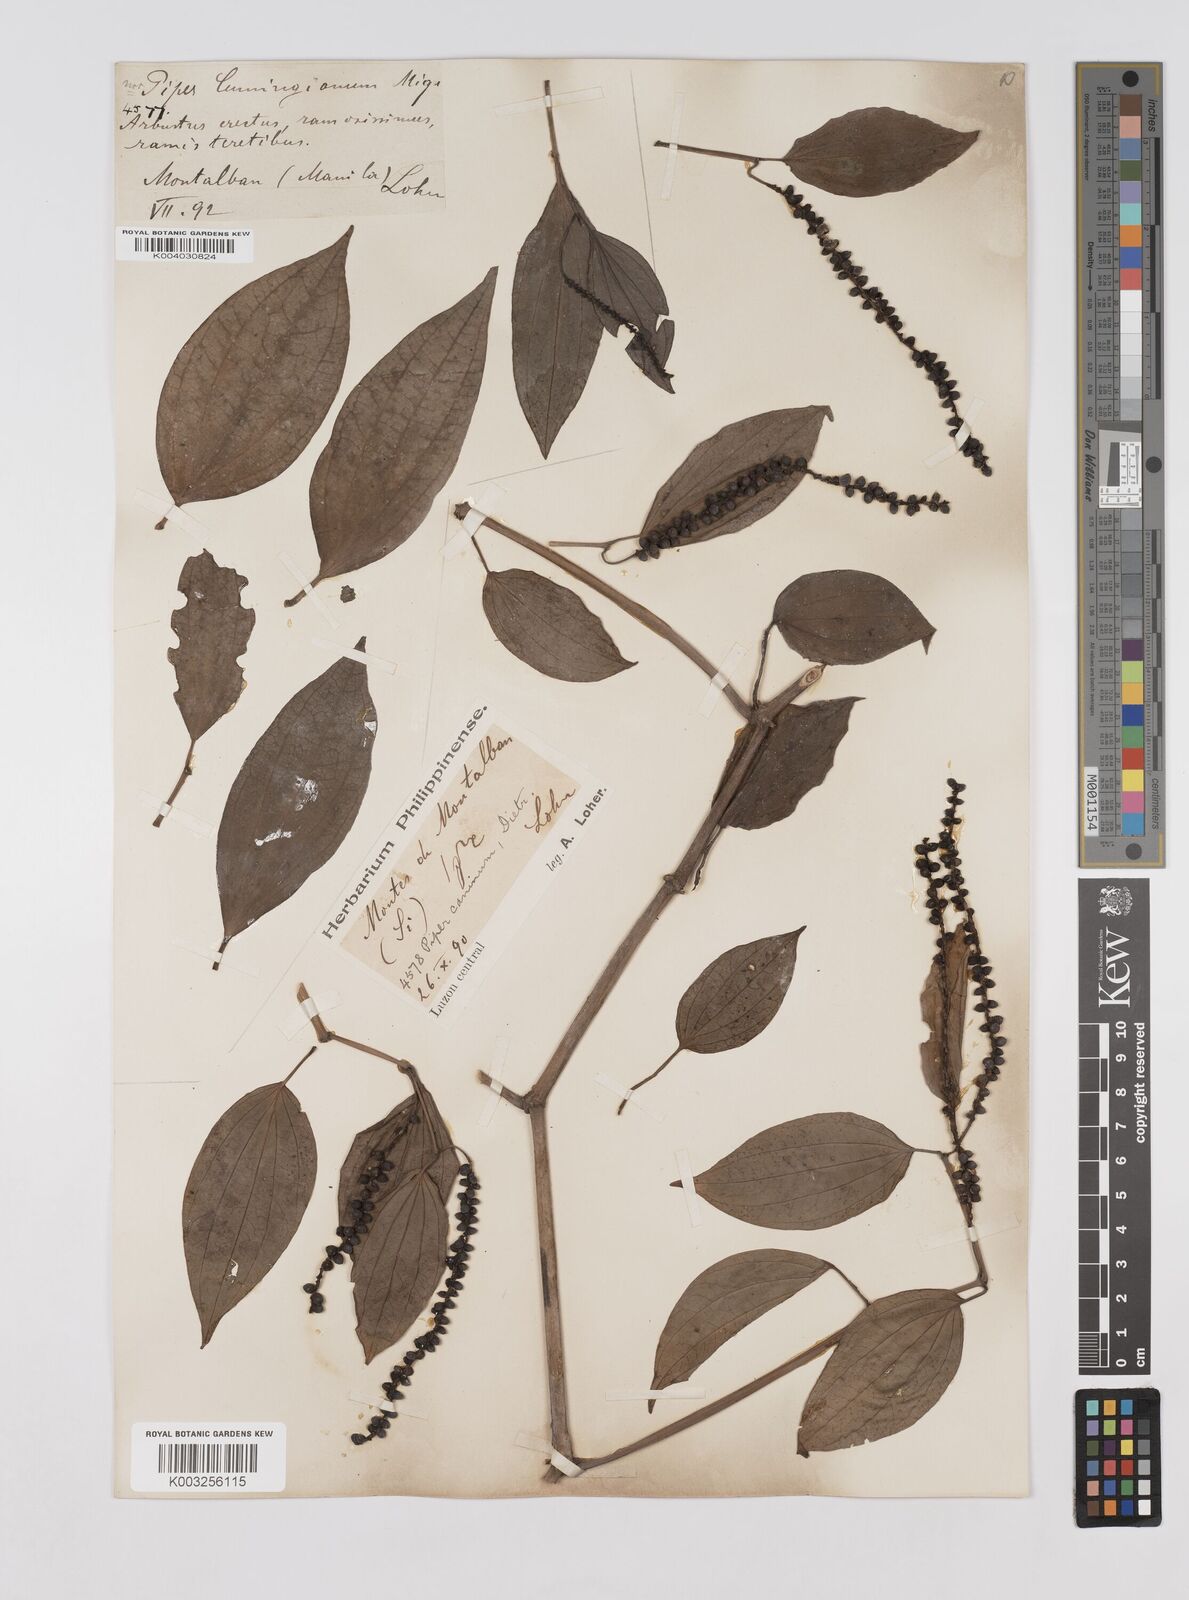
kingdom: Plantae
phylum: Tracheophyta
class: Magnoliopsida
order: Piperales
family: Piperaceae
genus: Piper
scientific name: Piper lanatum
